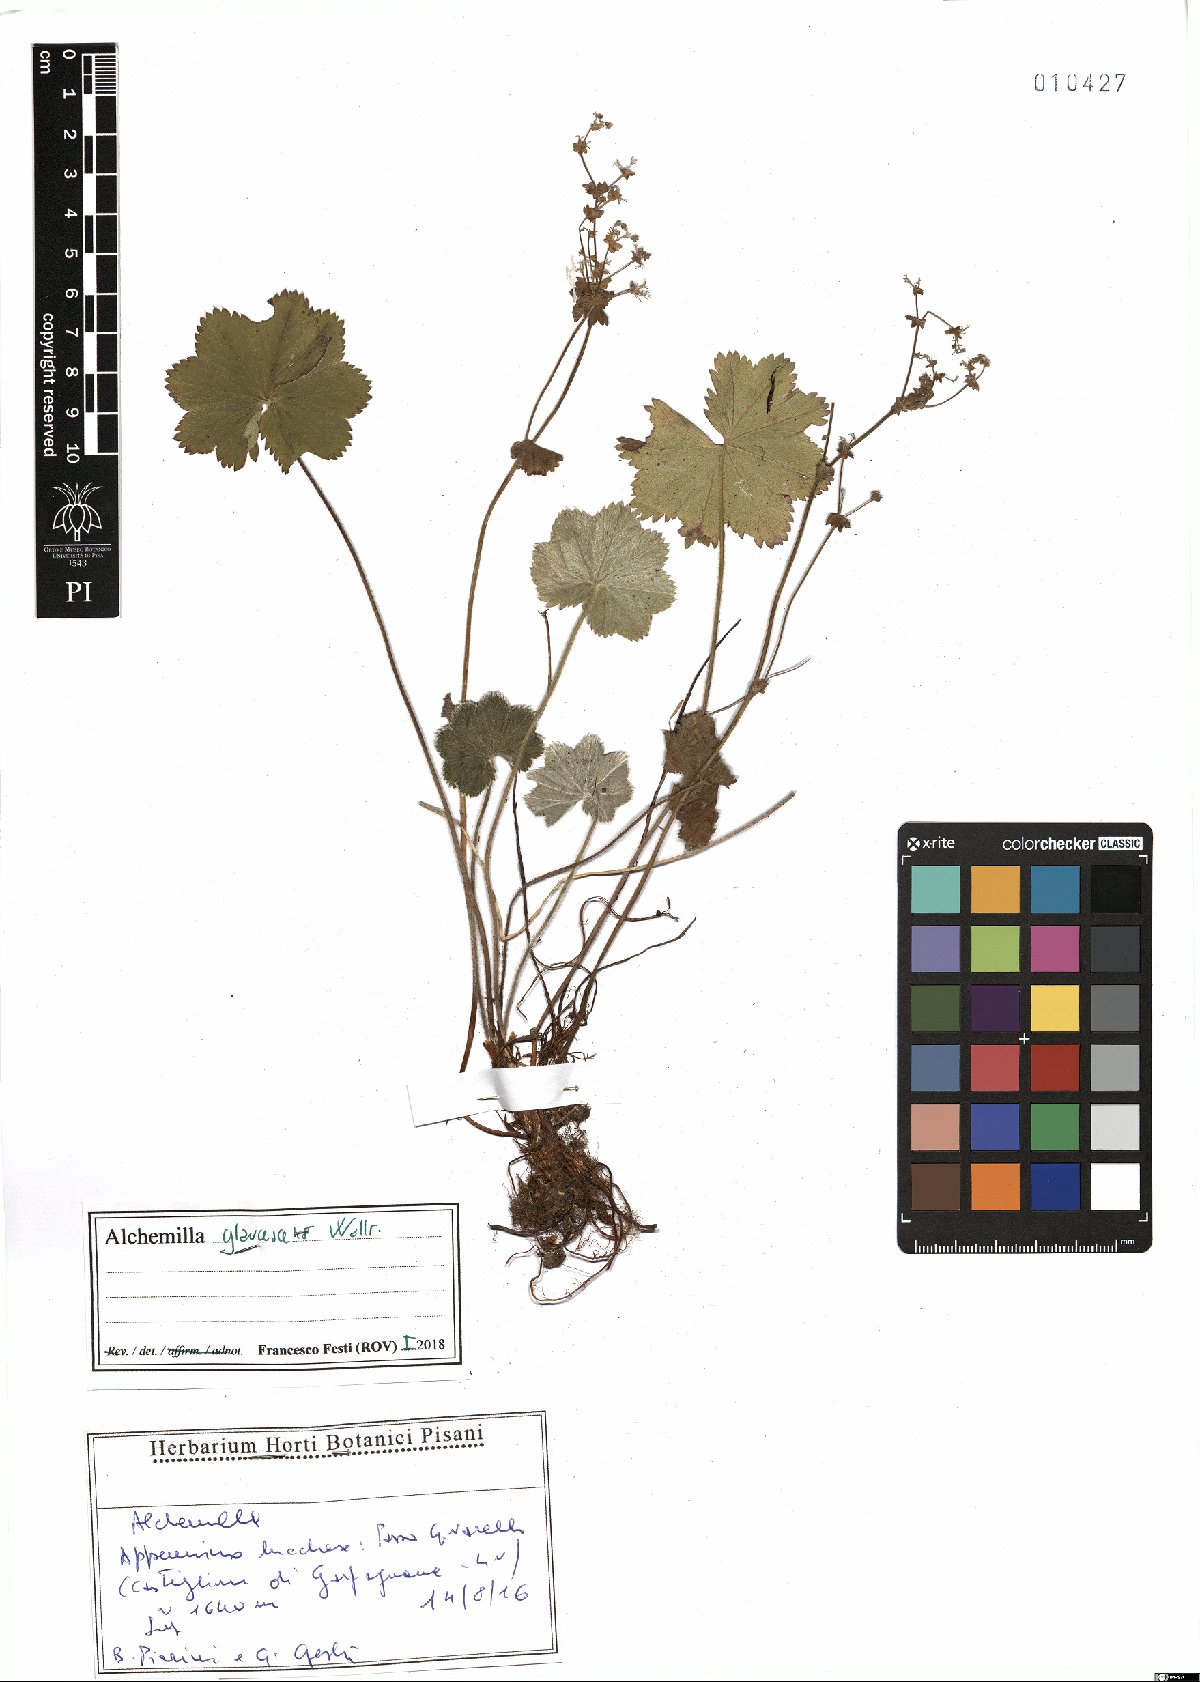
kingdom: Plantae
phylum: Tracheophyta
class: Magnoliopsida
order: Rosales
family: Rosaceae
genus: Alchemilla
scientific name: Alchemilla glaucescens
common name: Silky lady's mantle
